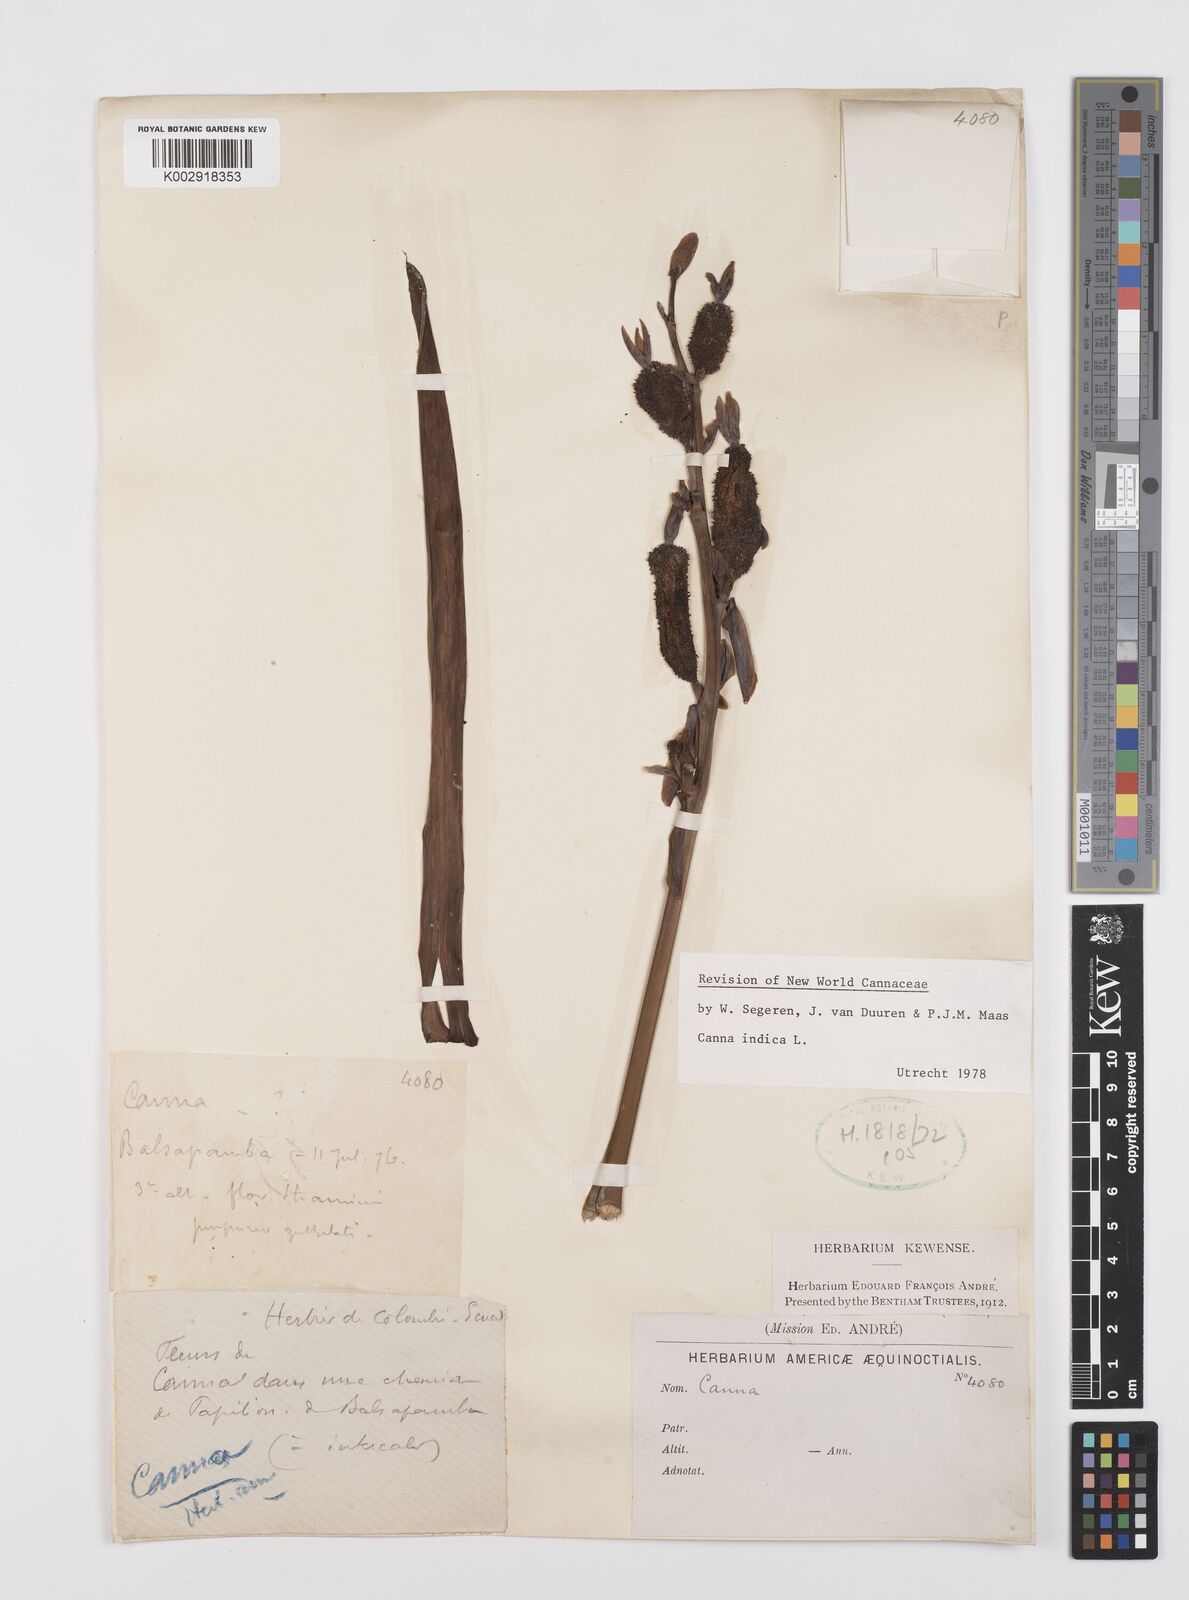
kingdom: Plantae
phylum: Tracheophyta
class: Liliopsida
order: Zingiberales
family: Cannaceae
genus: Canna
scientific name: Canna indica
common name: Indian shot
